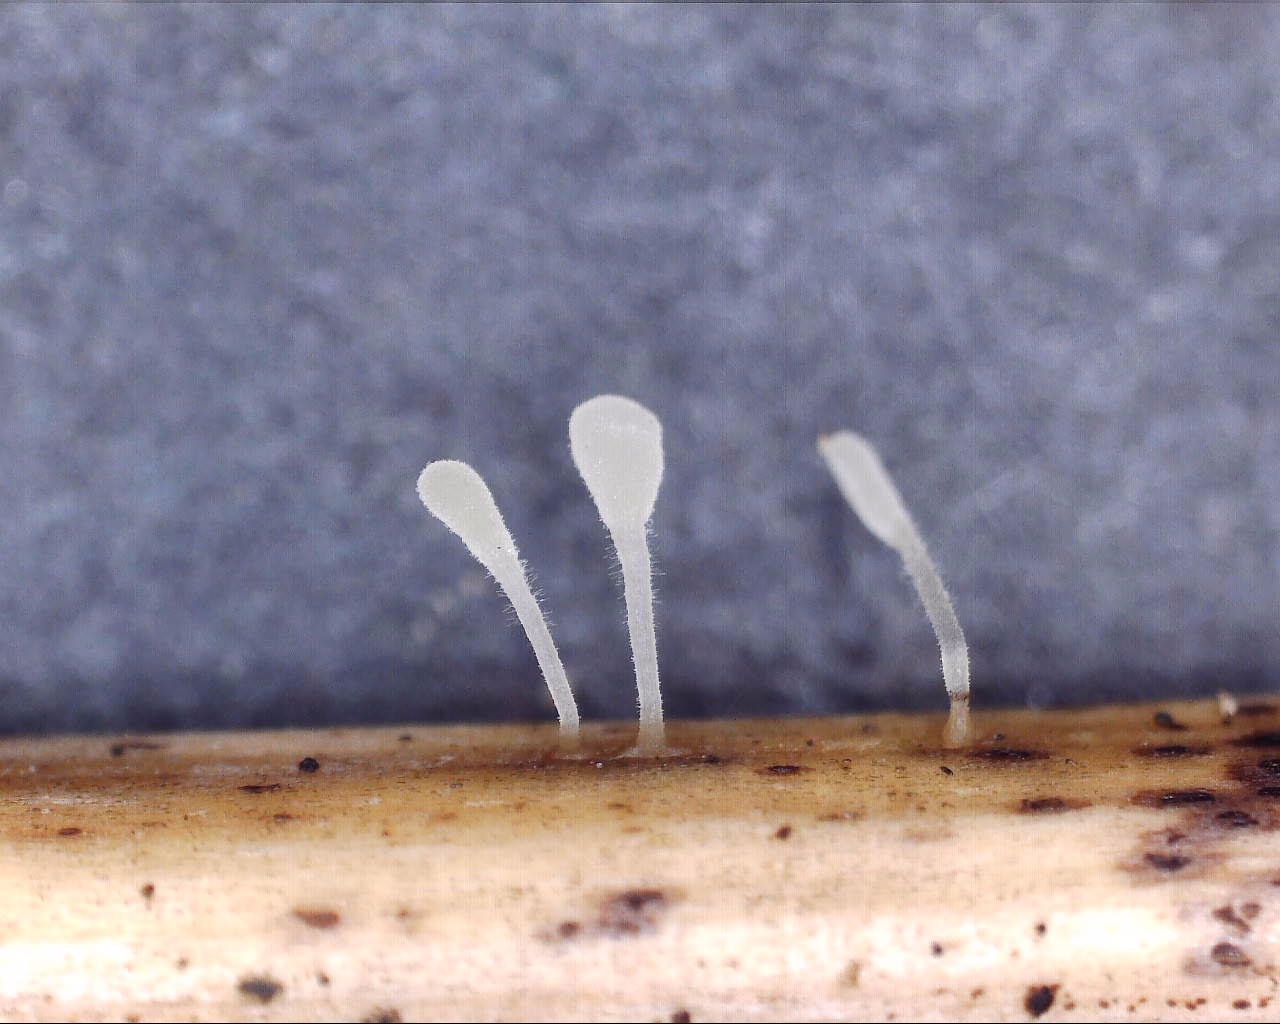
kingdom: Fungi
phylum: Basidiomycota
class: Agaricomycetes
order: Agaricales
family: Typhulaceae
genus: Typhula
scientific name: Typhula quisquiliaris
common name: ørnebregne-trådkølle
